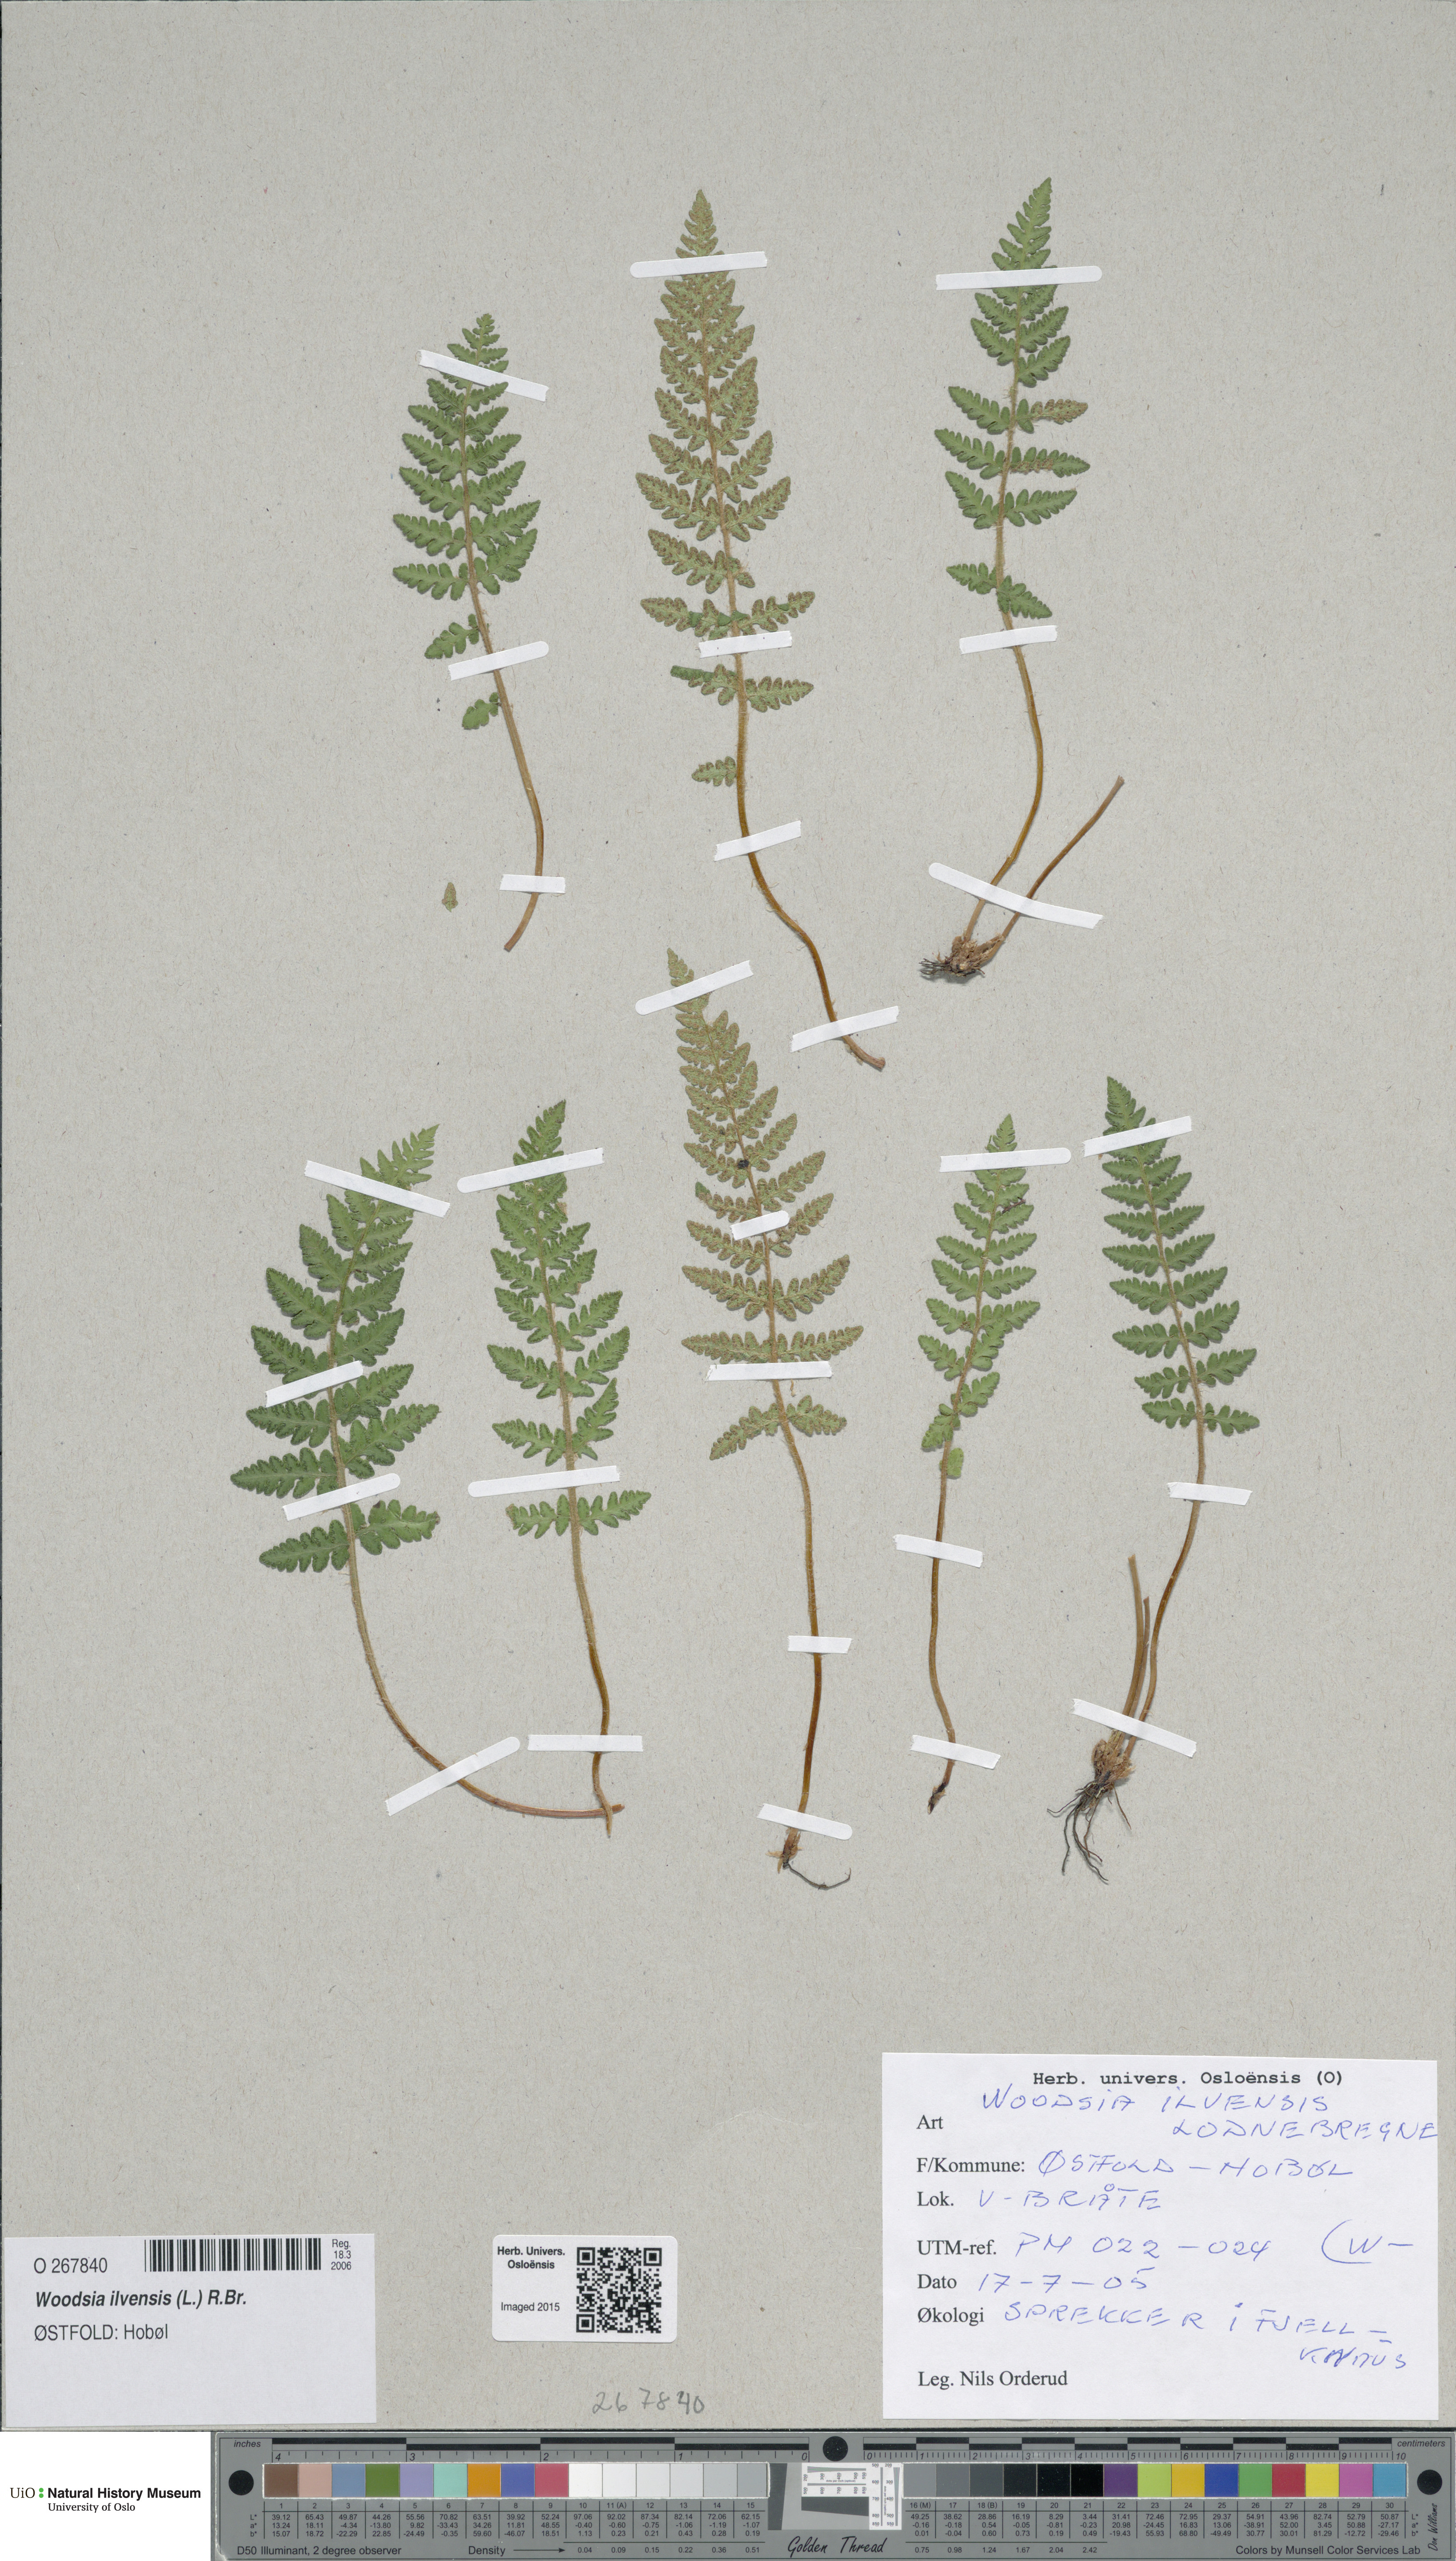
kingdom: Plantae
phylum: Tracheophyta
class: Polypodiopsida
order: Polypodiales
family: Woodsiaceae
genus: Woodsia
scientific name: Woodsia ilvensis
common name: Fragrant woodsia
